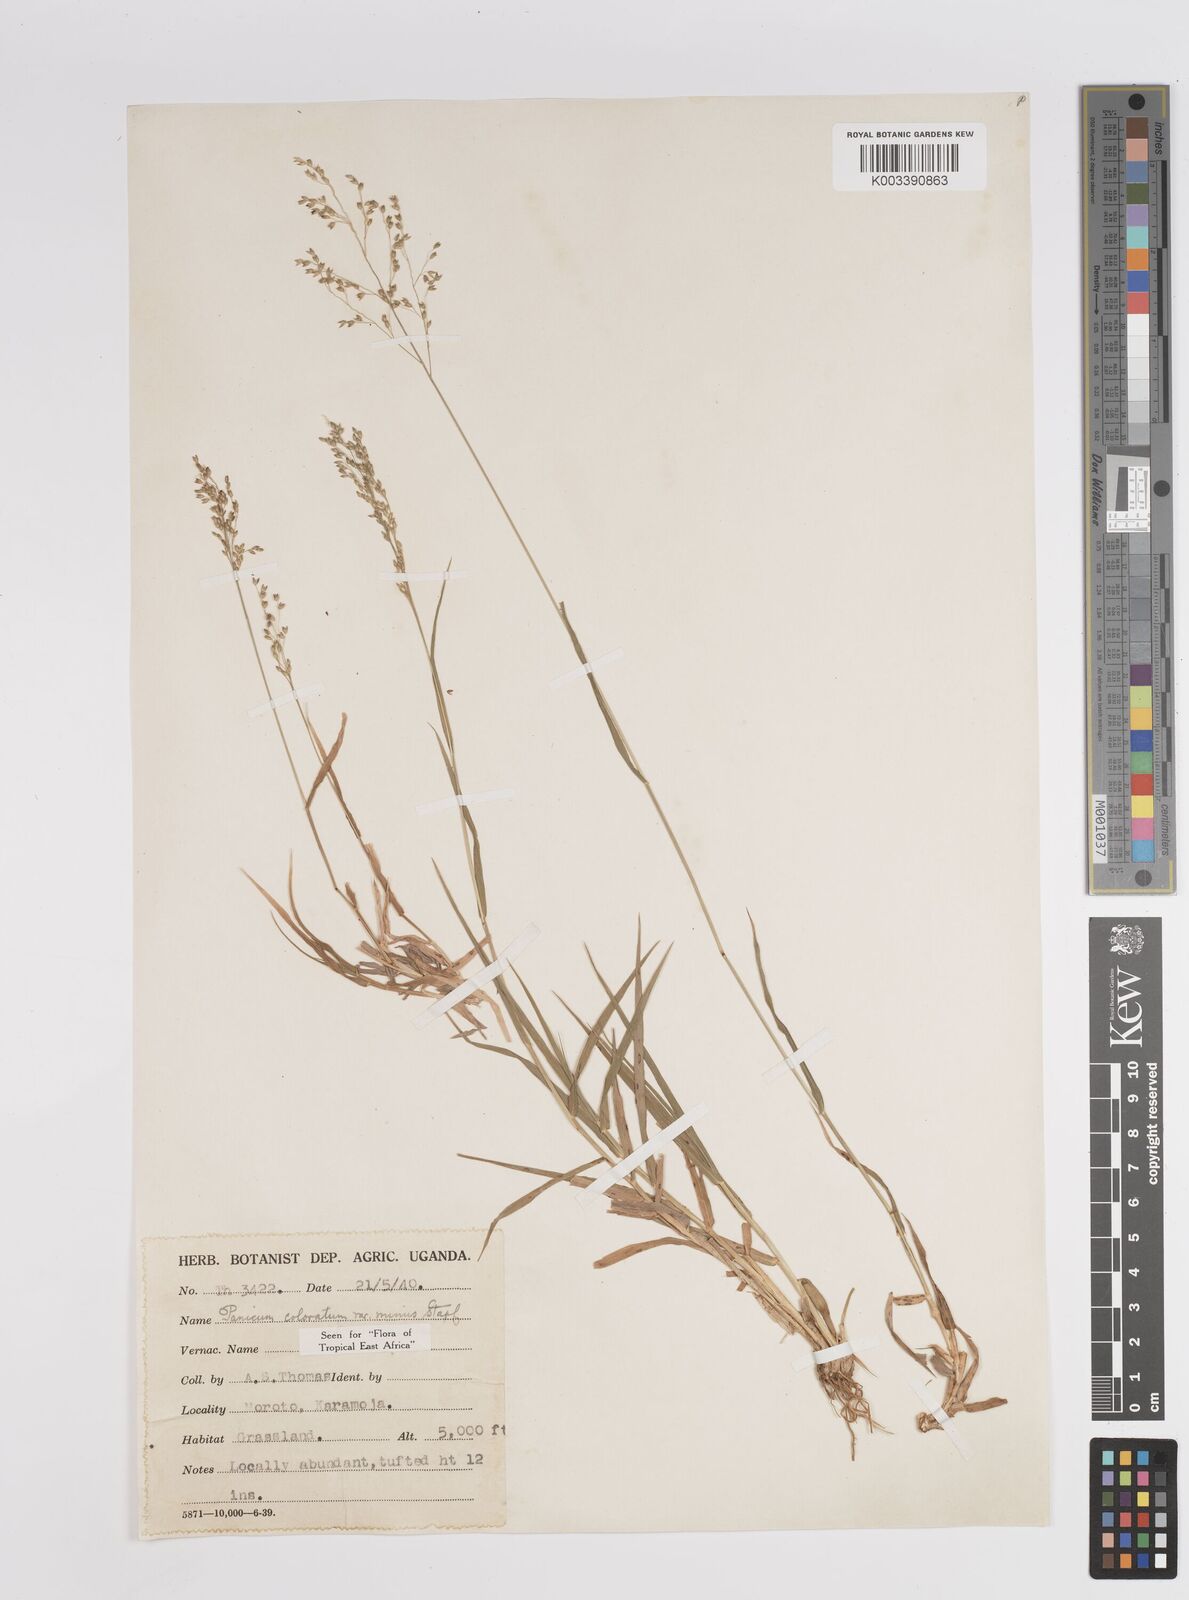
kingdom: Plantae
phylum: Tracheophyta
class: Liliopsida
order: Poales
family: Poaceae
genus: Panicum
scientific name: Panicum coloratum
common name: Kleingrass
